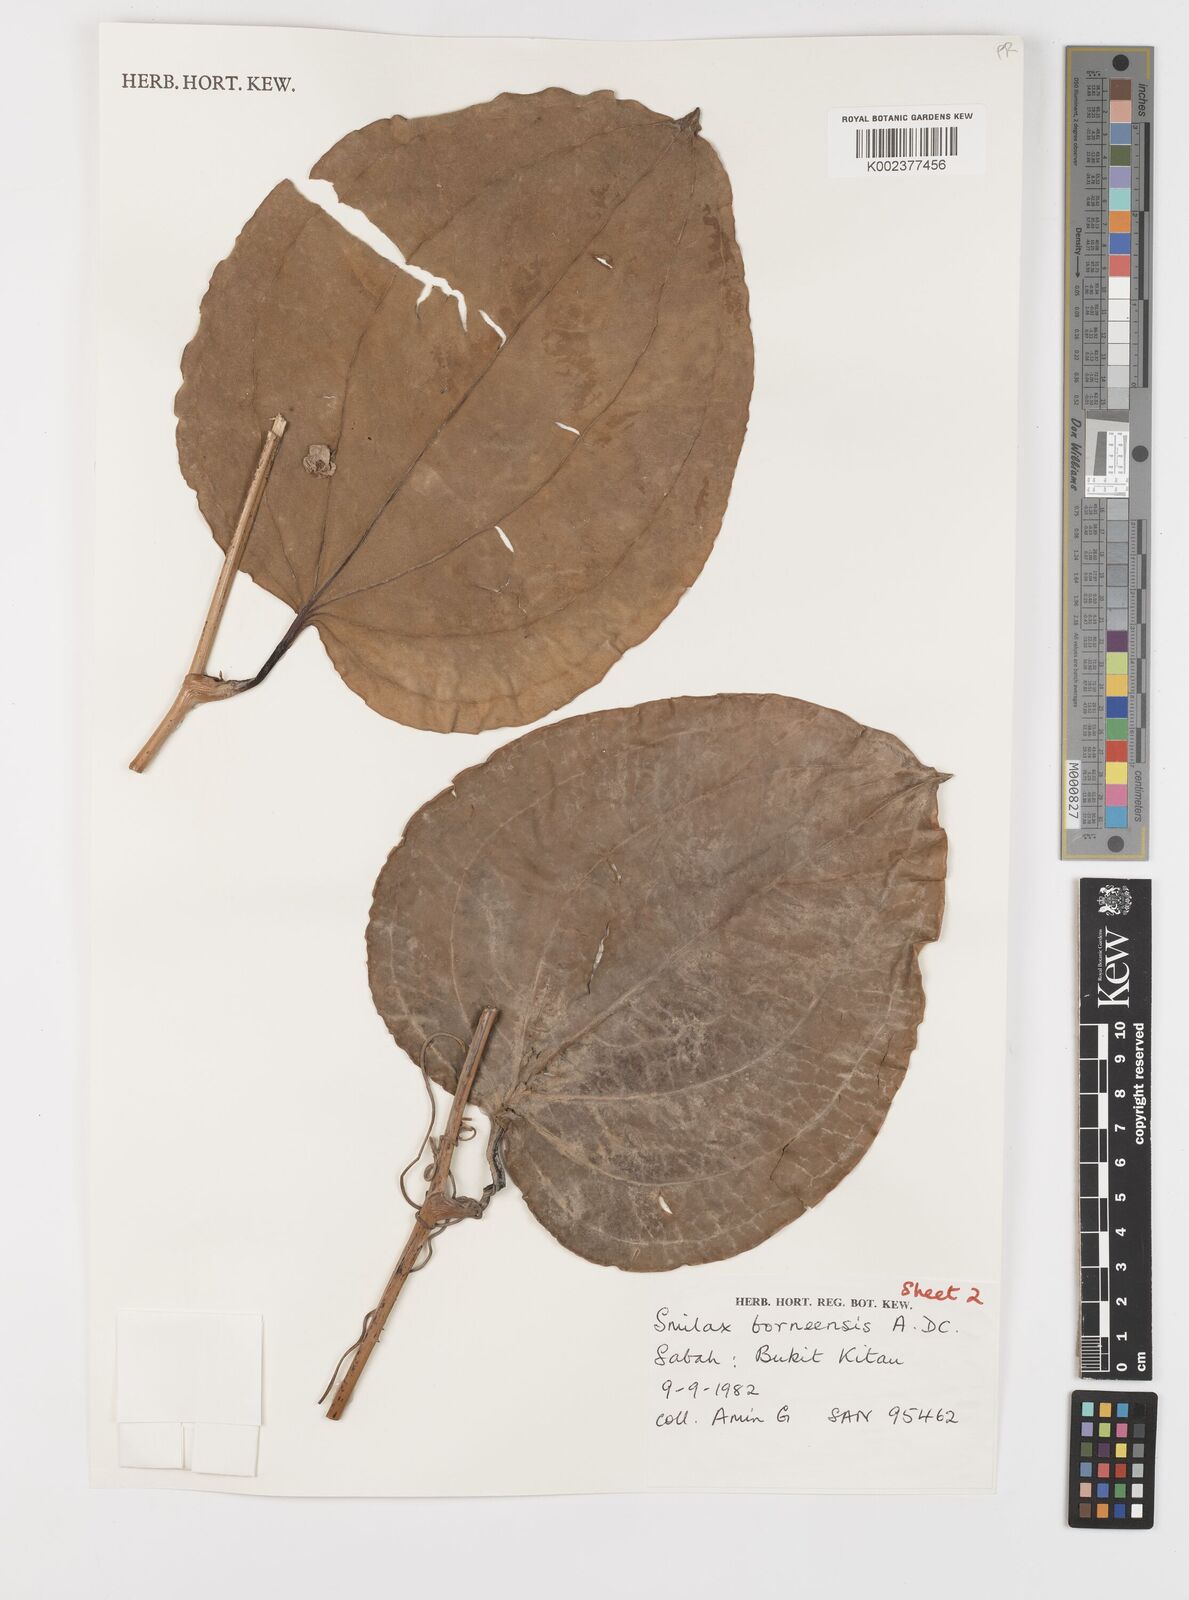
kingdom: Plantae
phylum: Tracheophyta
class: Liliopsida
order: Liliales
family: Smilacaceae
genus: Smilax
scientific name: Smilax borneensis
